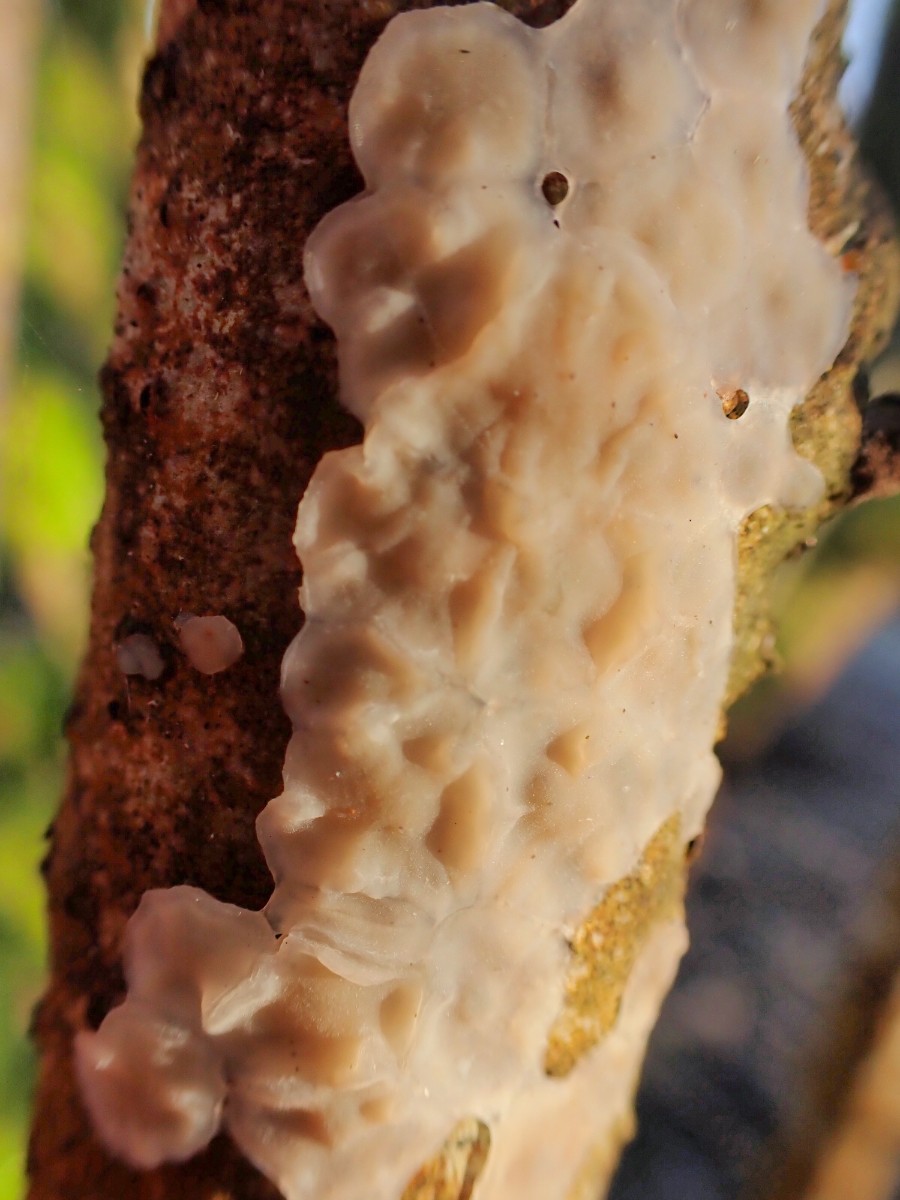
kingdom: Fungi
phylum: Basidiomycota
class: Agaricomycetes
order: Russulales
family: Peniophoraceae
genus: Scytinostroma
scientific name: Scytinostroma hemidichophyticum
